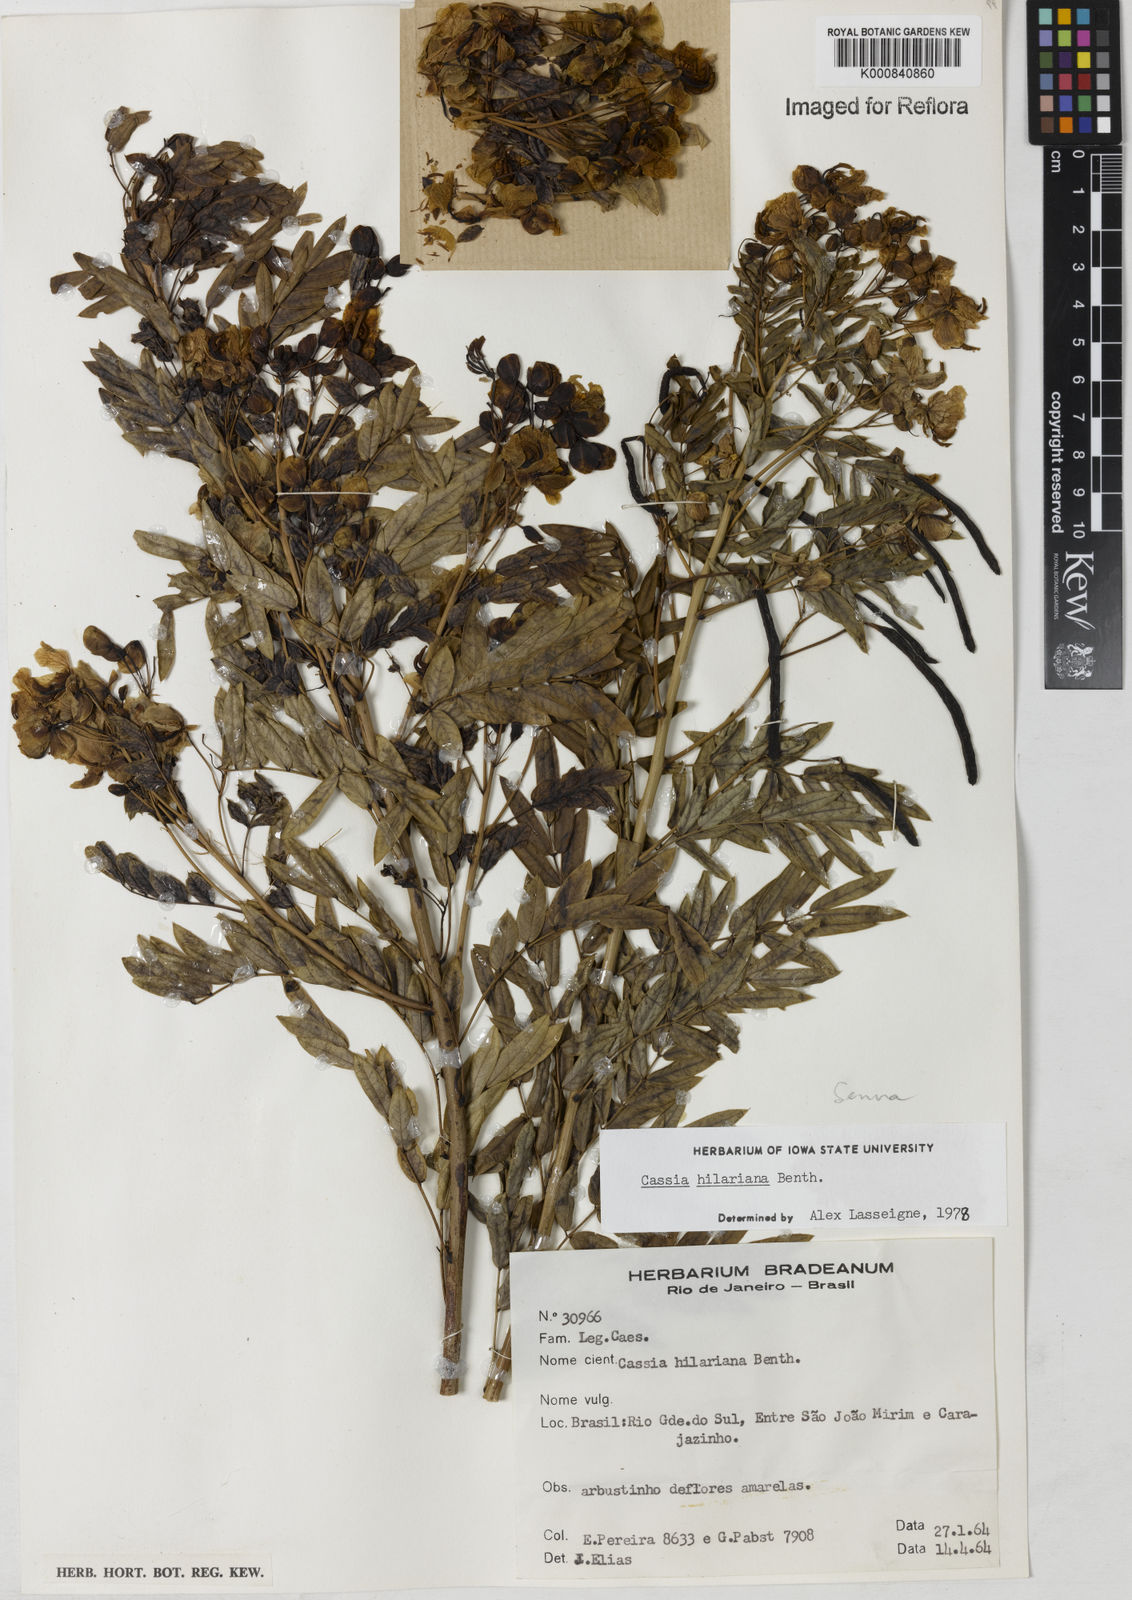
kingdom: Plantae
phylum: Tracheophyta
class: Magnoliopsida
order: Fabales
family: Fabaceae
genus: Senna
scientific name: Senna hilariana
